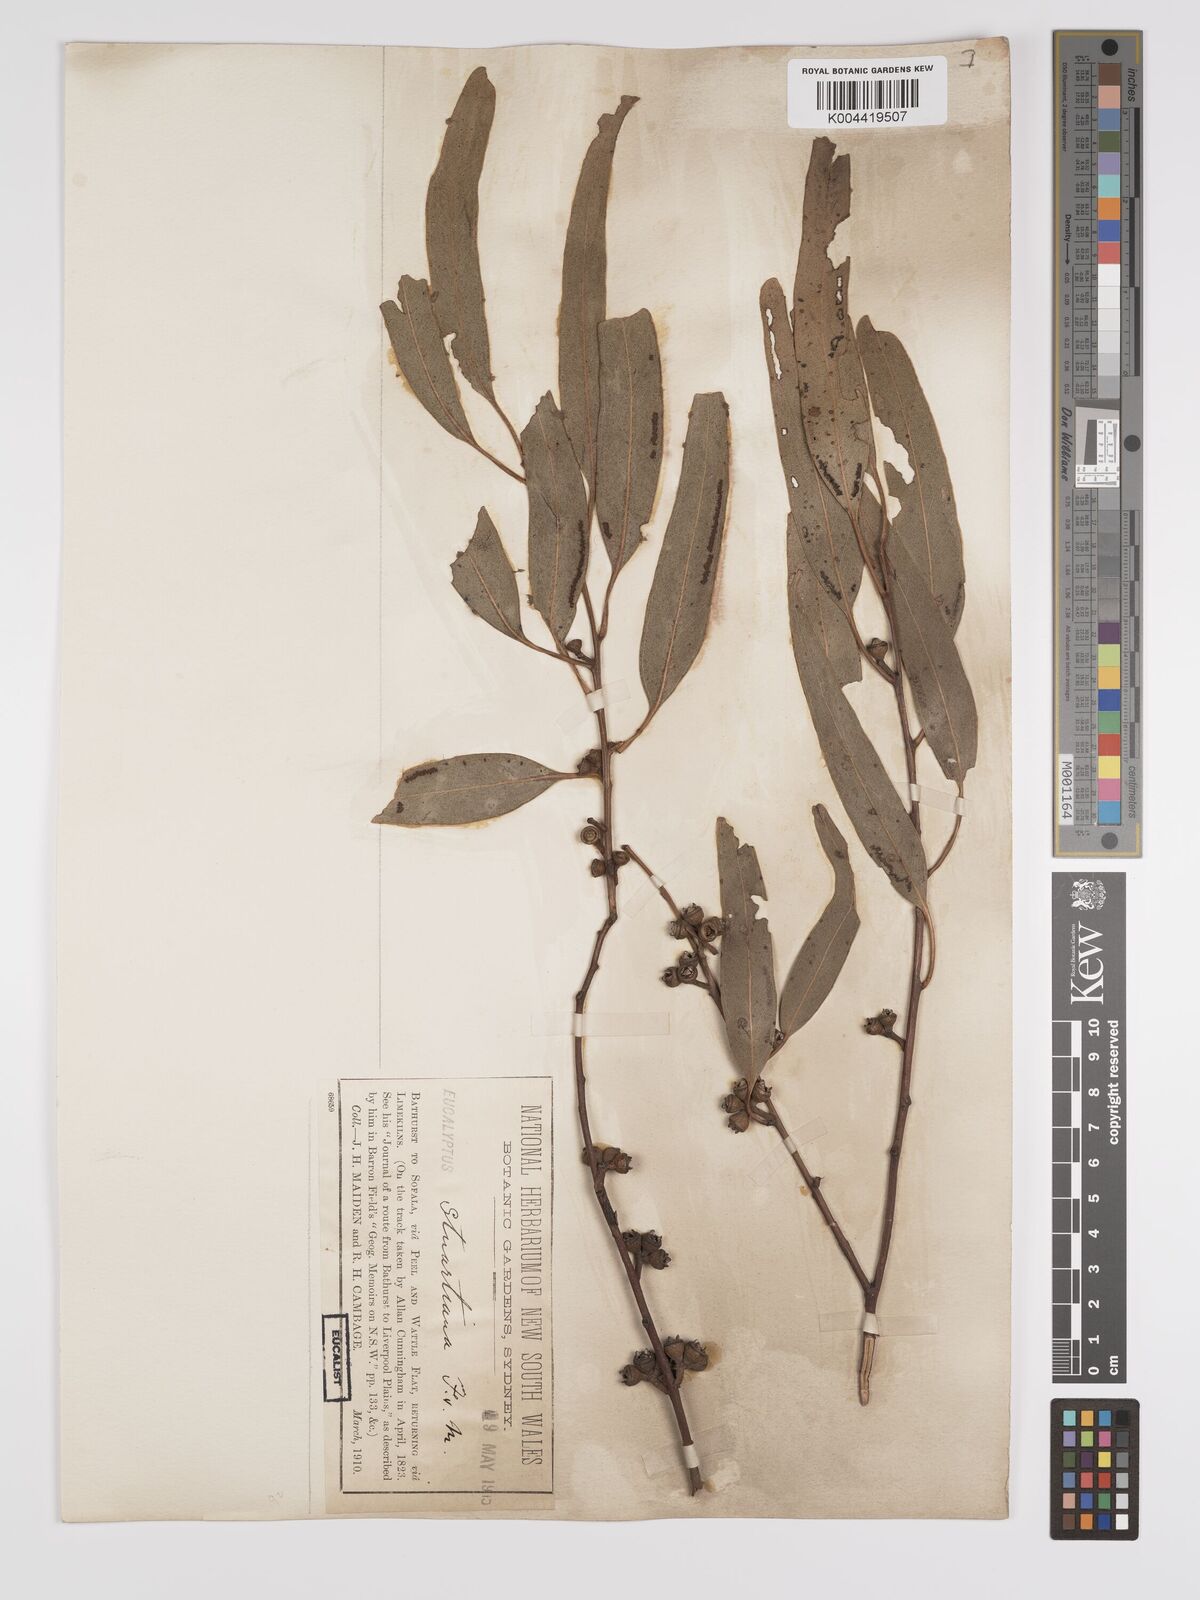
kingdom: Plantae
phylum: Tracheophyta
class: Magnoliopsida
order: Myrtales
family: Myrtaceae
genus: Eucalyptus
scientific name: Eucalyptus ovata
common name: Black-gum
